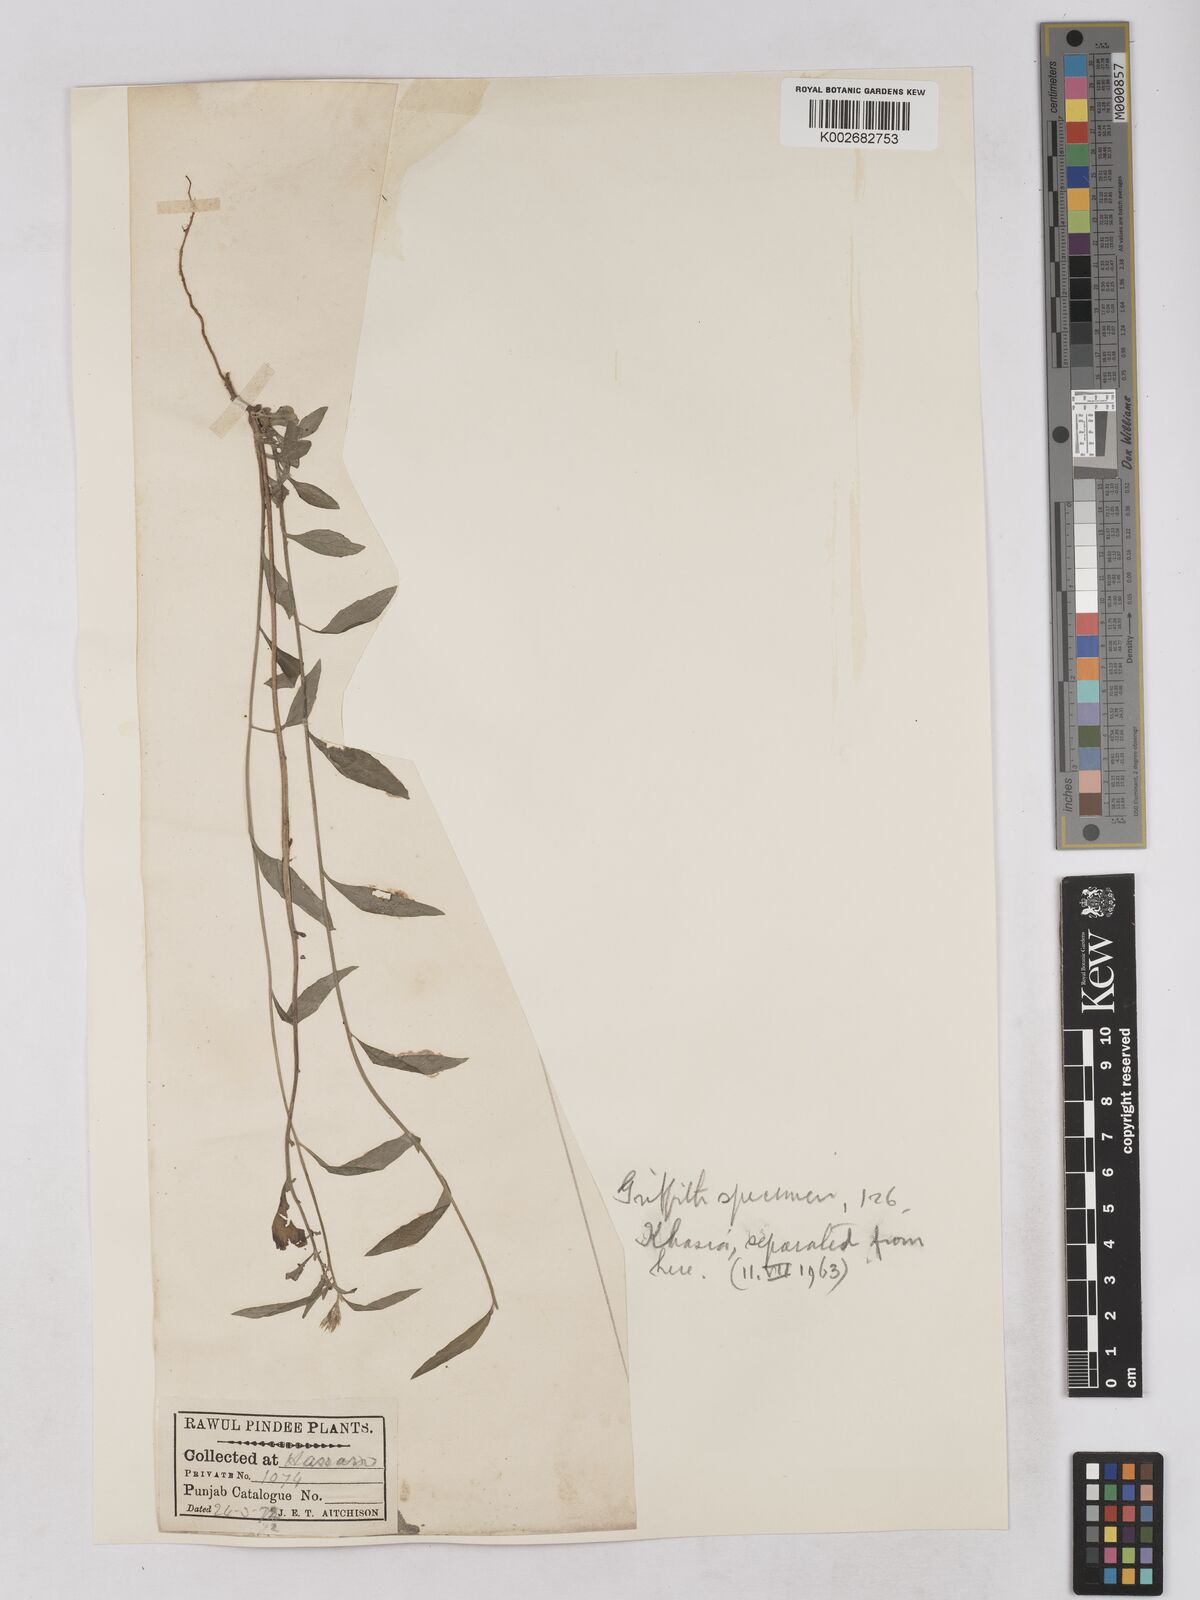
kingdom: Plantae
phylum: Tracheophyta
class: Magnoliopsida
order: Asterales
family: Asteraceae
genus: Cyanthillium
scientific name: Cyanthillium cinereum
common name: Little ironweed
